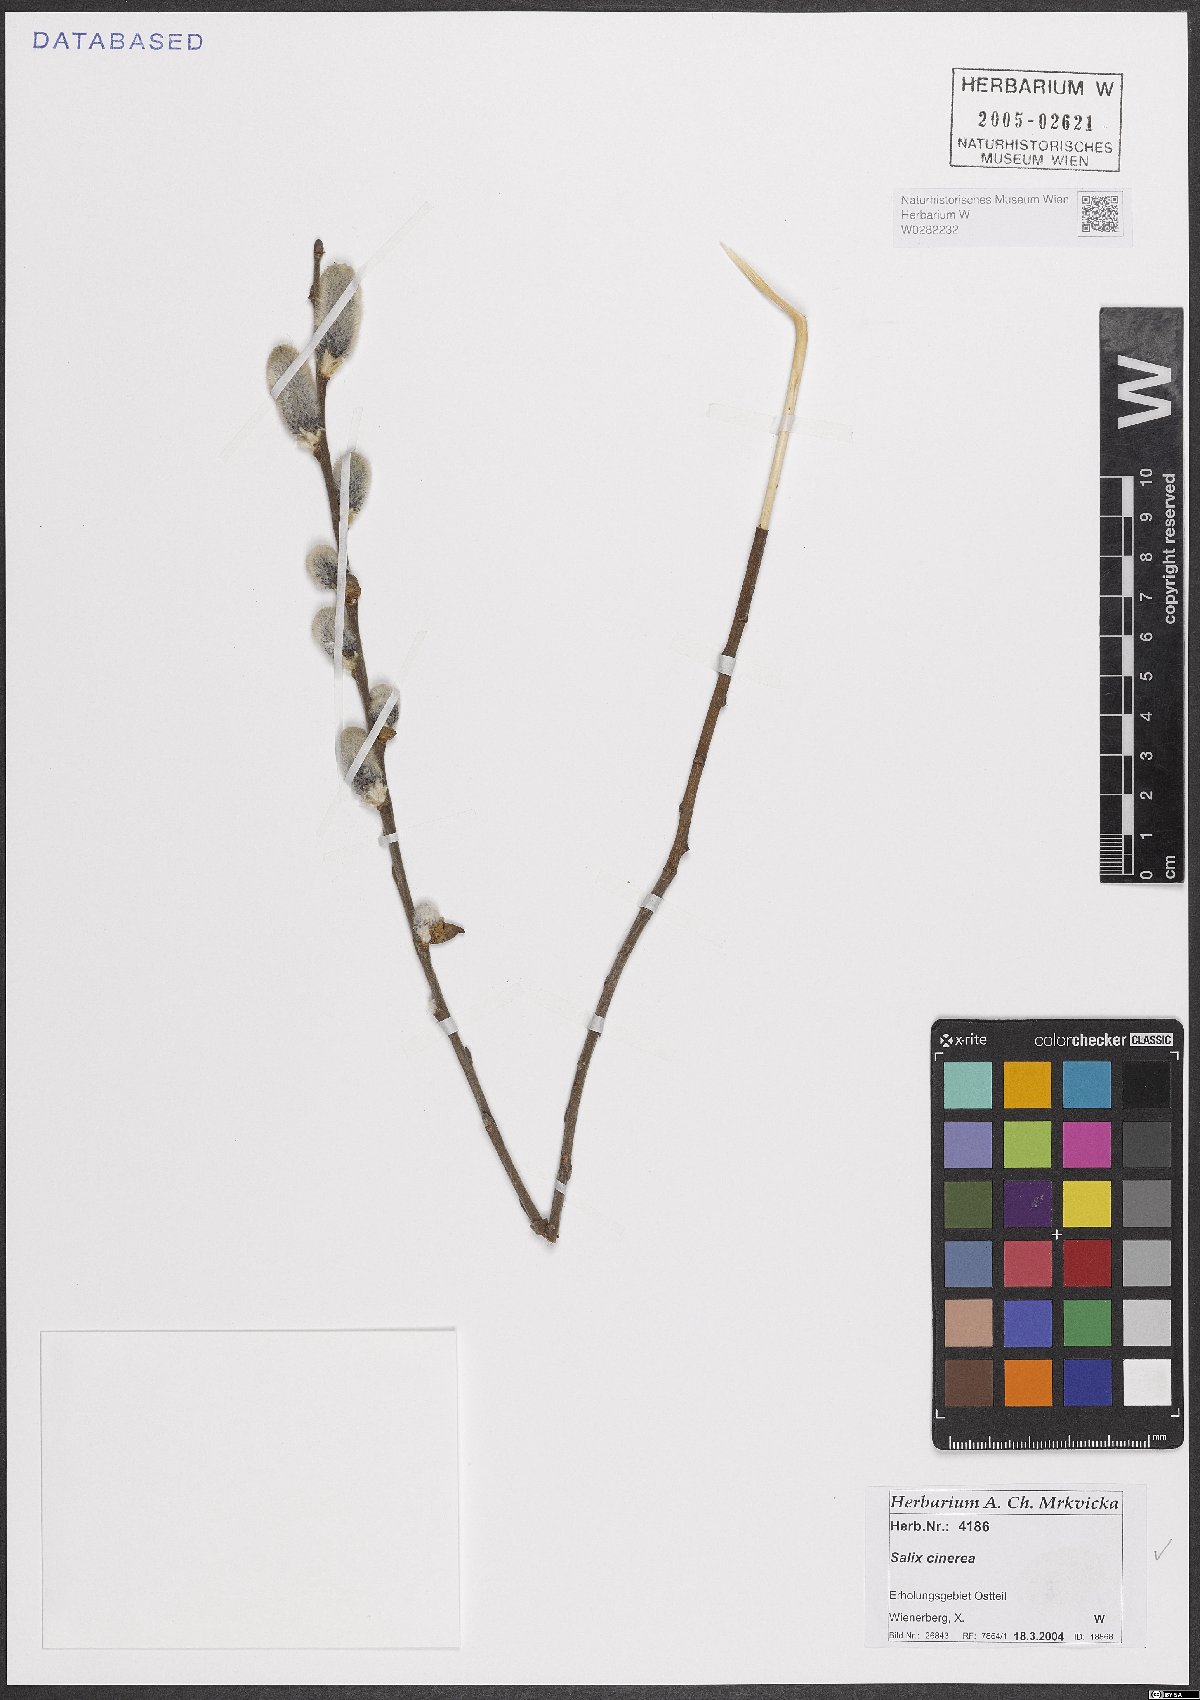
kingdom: Plantae
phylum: Tracheophyta
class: Magnoliopsida
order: Malpighiales
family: Salicaceae
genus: Salix
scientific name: Salix cinerea
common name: Common sallow
